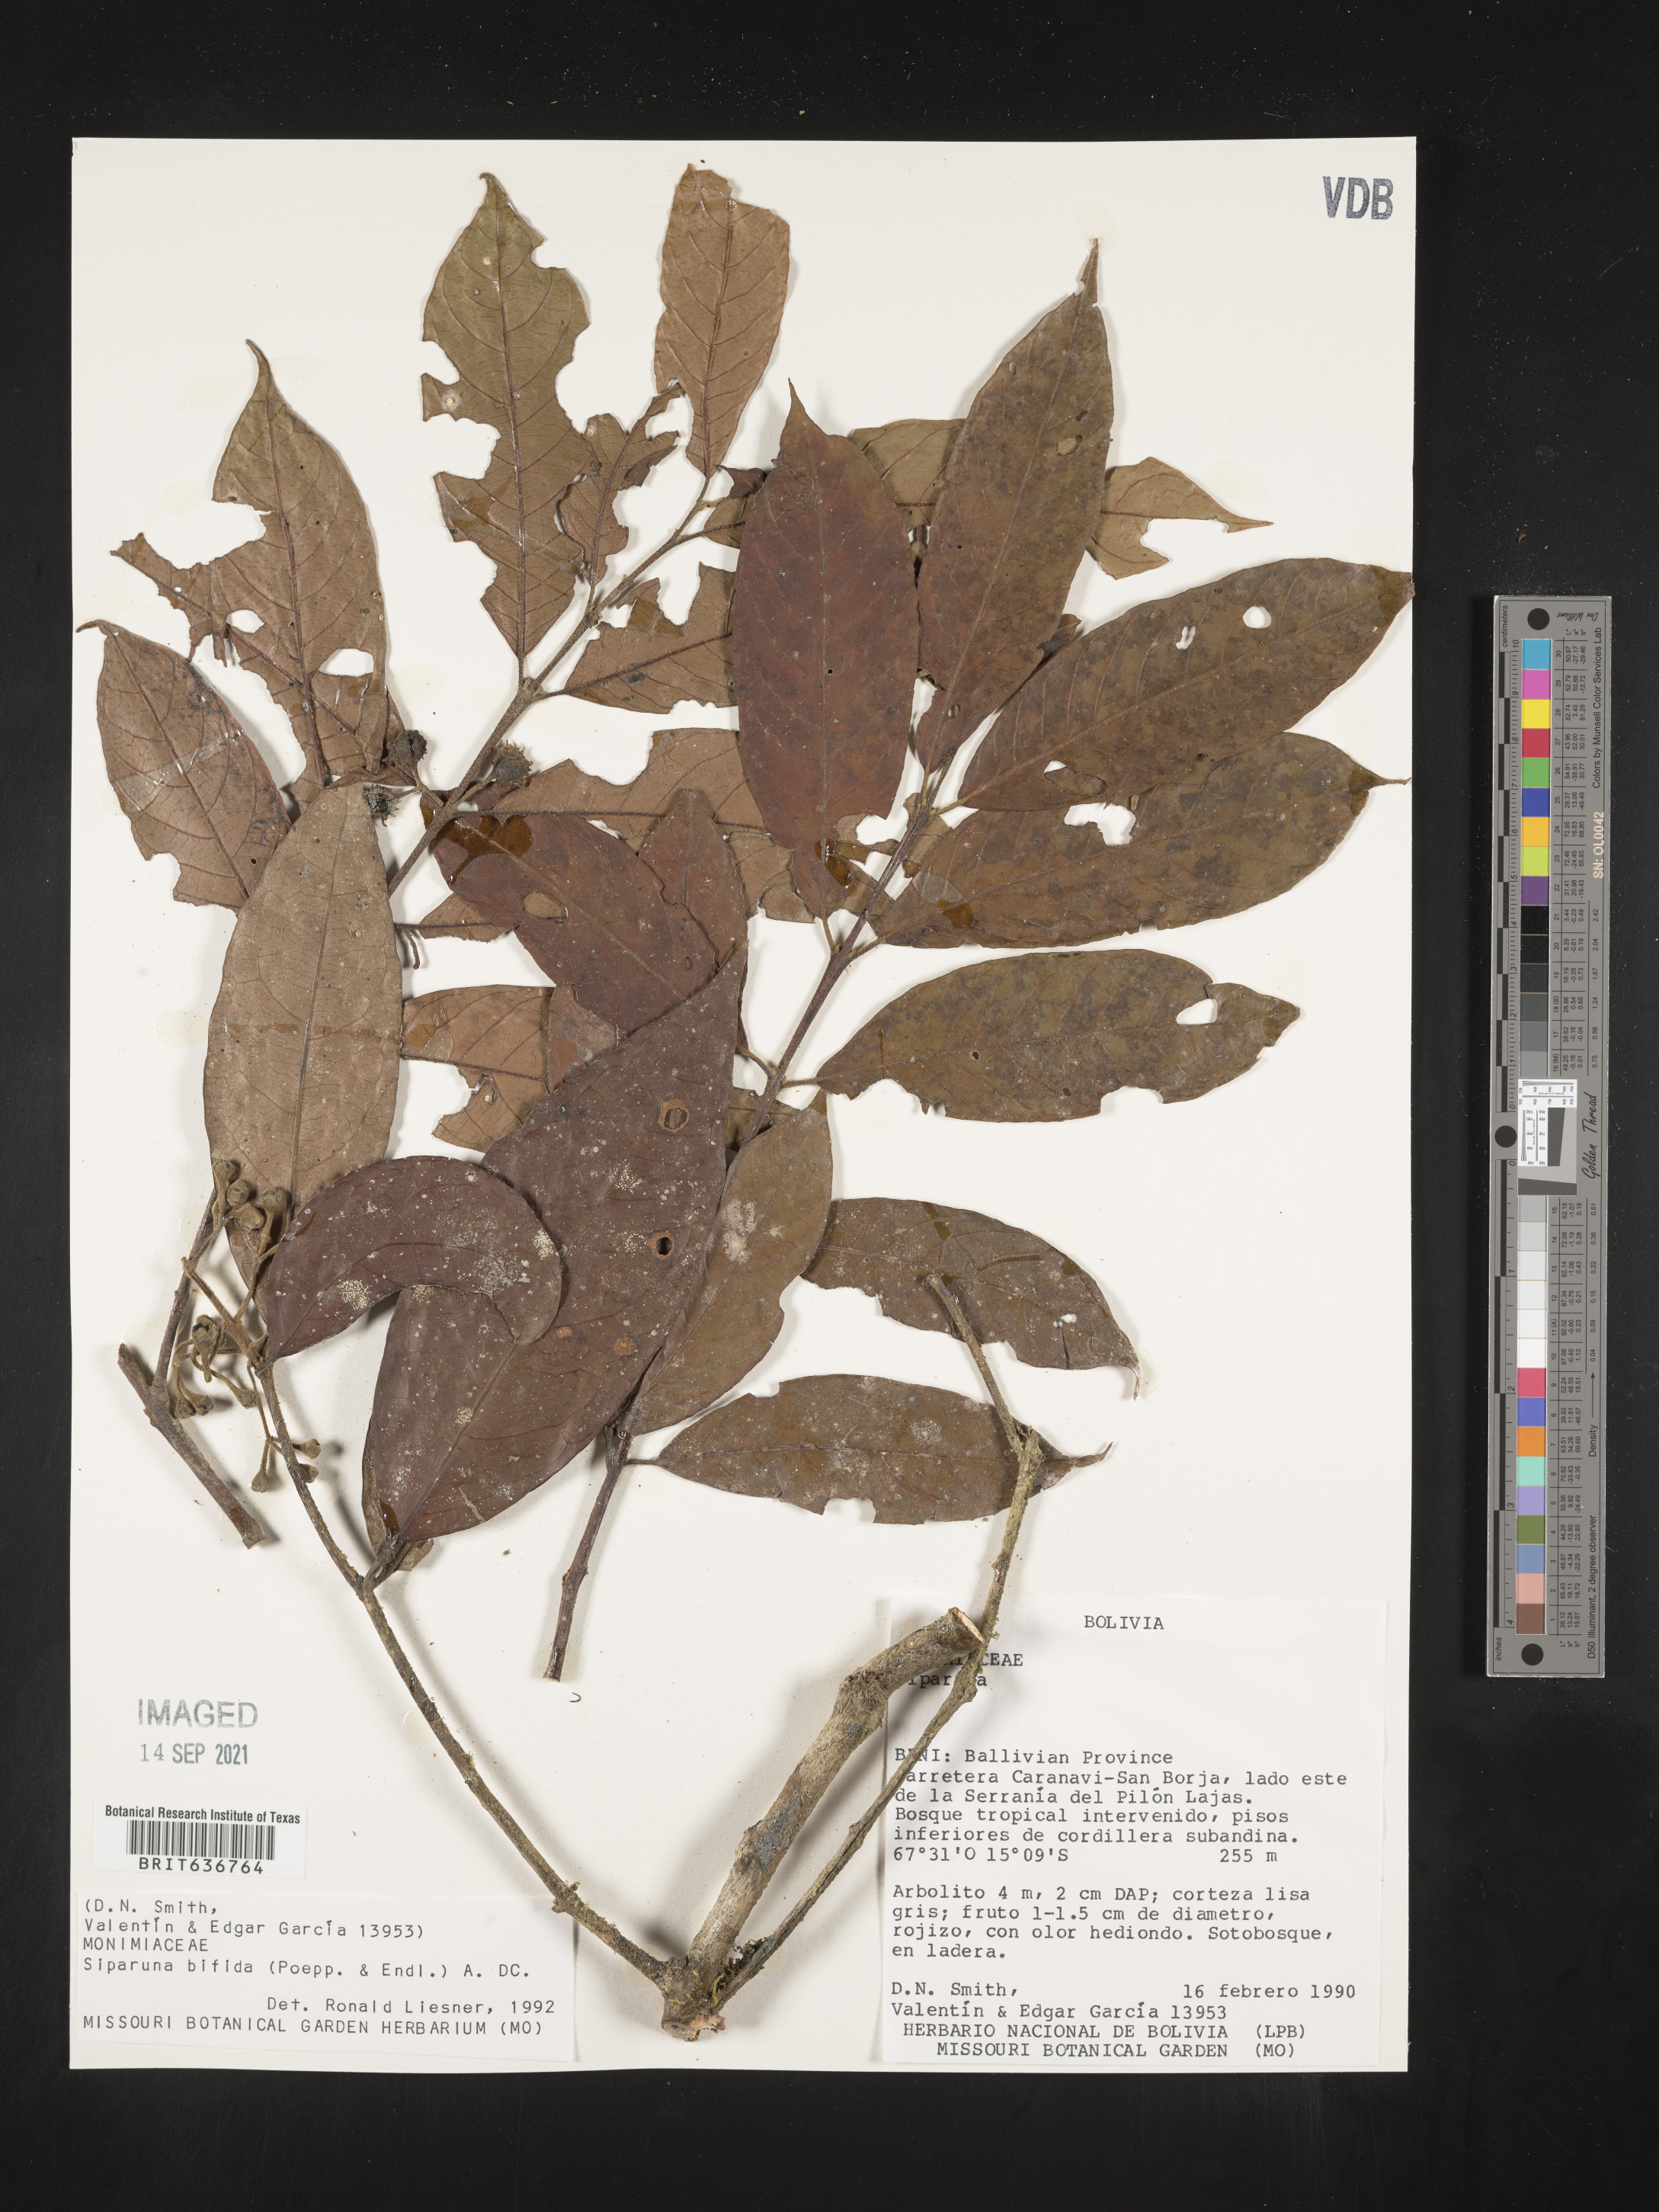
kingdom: Plantae
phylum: Tracheophyta
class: Magnoliopsida
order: Laurales
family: Siparunaceae
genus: Siparuna
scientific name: Siparuna
